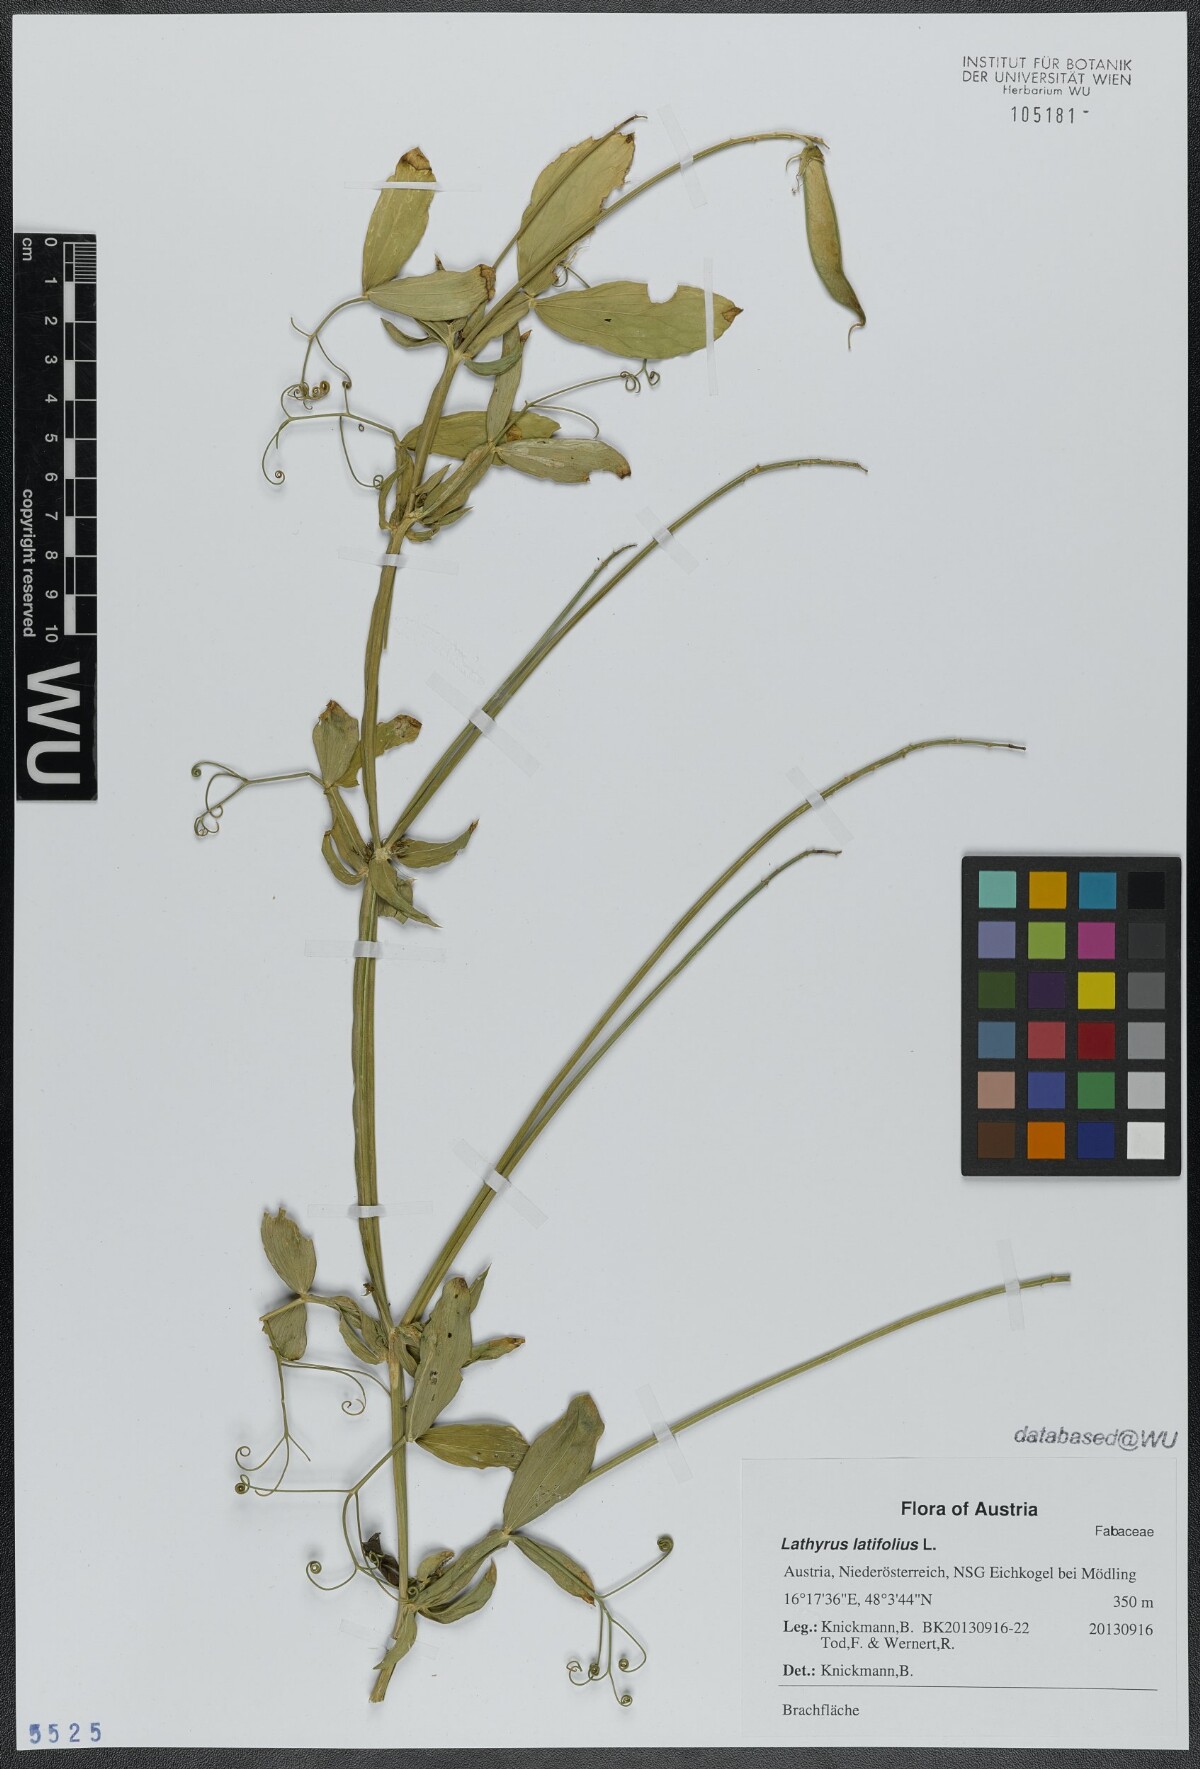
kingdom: Plantae
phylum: Tracheophyta
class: Magnoliopsida
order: Fabales
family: Fabaceae
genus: Lathyrus
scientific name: Lathyrus latifolius
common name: Perennial pea
